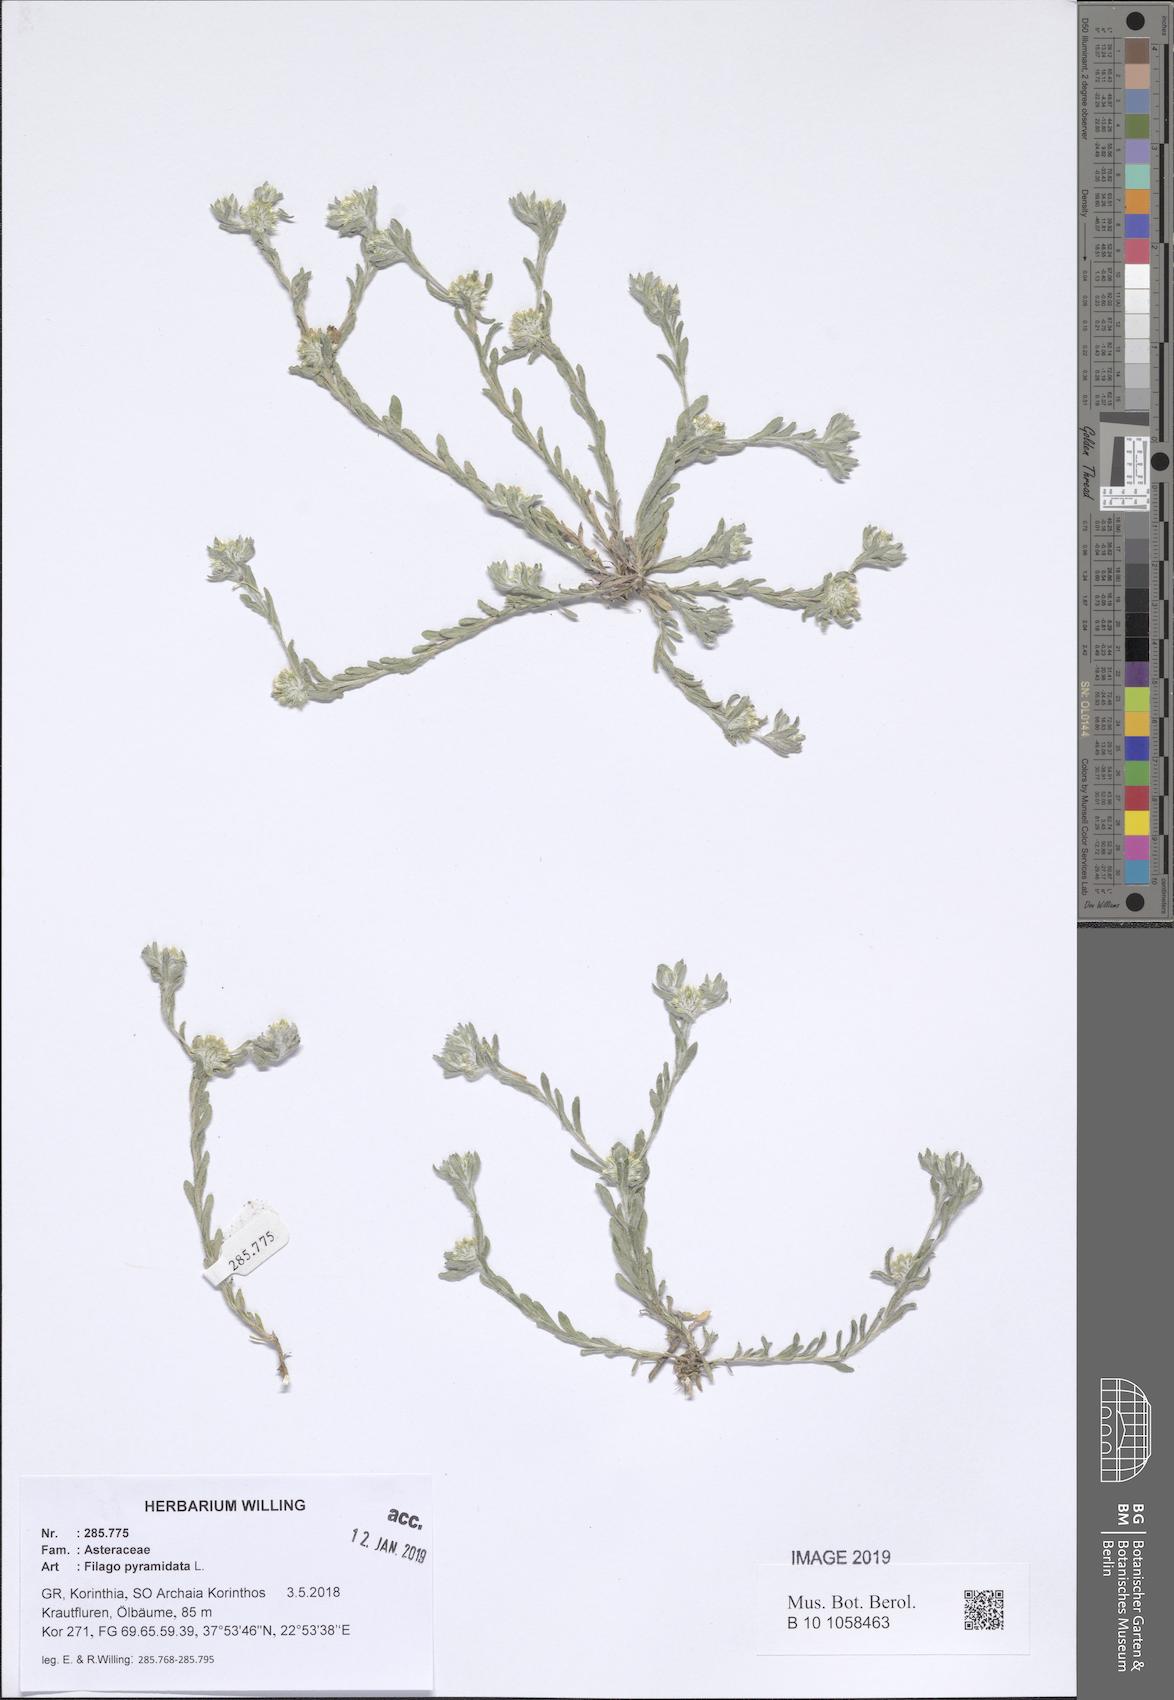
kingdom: Plantae
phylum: Tracheophyta
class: Magnoliopsida
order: Asterales
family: Asteraceae
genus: Filago
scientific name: Filago pyramidata
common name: Broad-leaved cudweed
